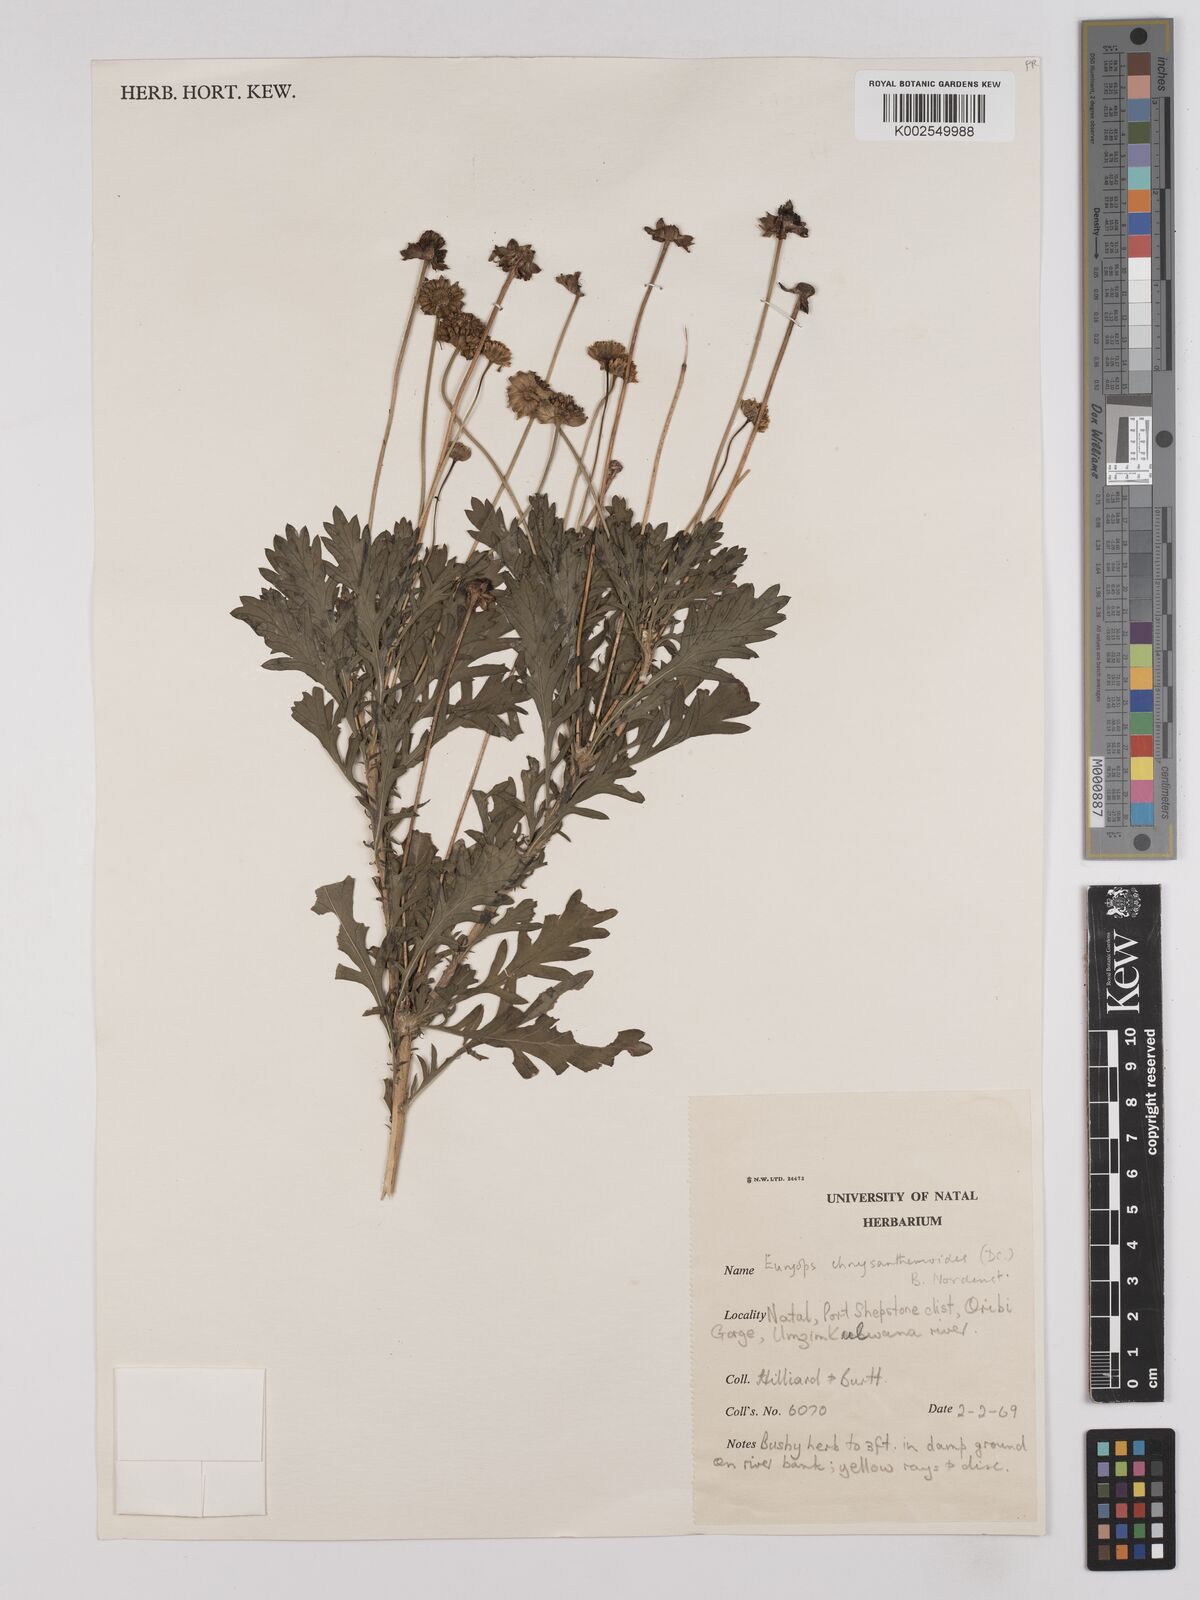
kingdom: Plantae
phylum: Tracheophyta
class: Magnoliopsida
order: Asterales
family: Asteraceae
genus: Euryops
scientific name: Euryops chrysanthemoides
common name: Bull's eye
